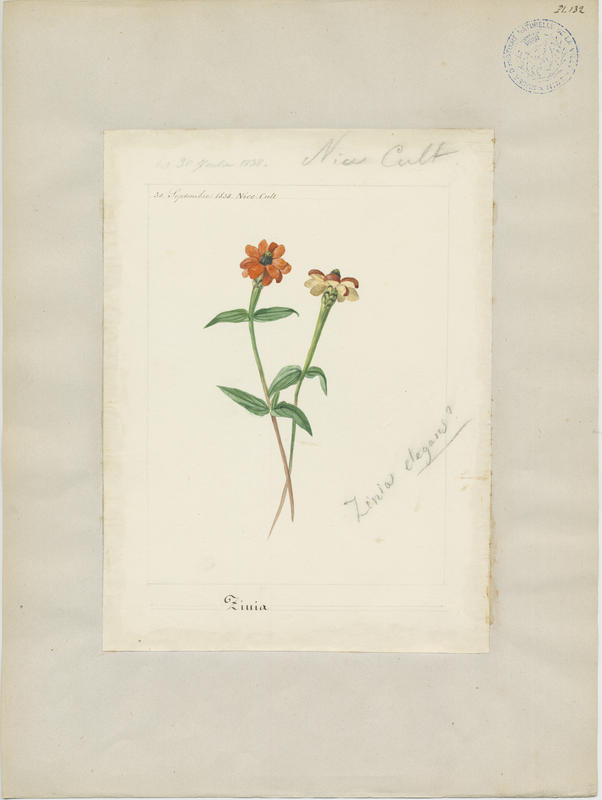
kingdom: Plantae
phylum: Tracheophyta
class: Magnoliopsida
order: Asterales
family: Asteraceae
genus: Zinnia
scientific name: Zinnia elegans
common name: Youth-and-age
